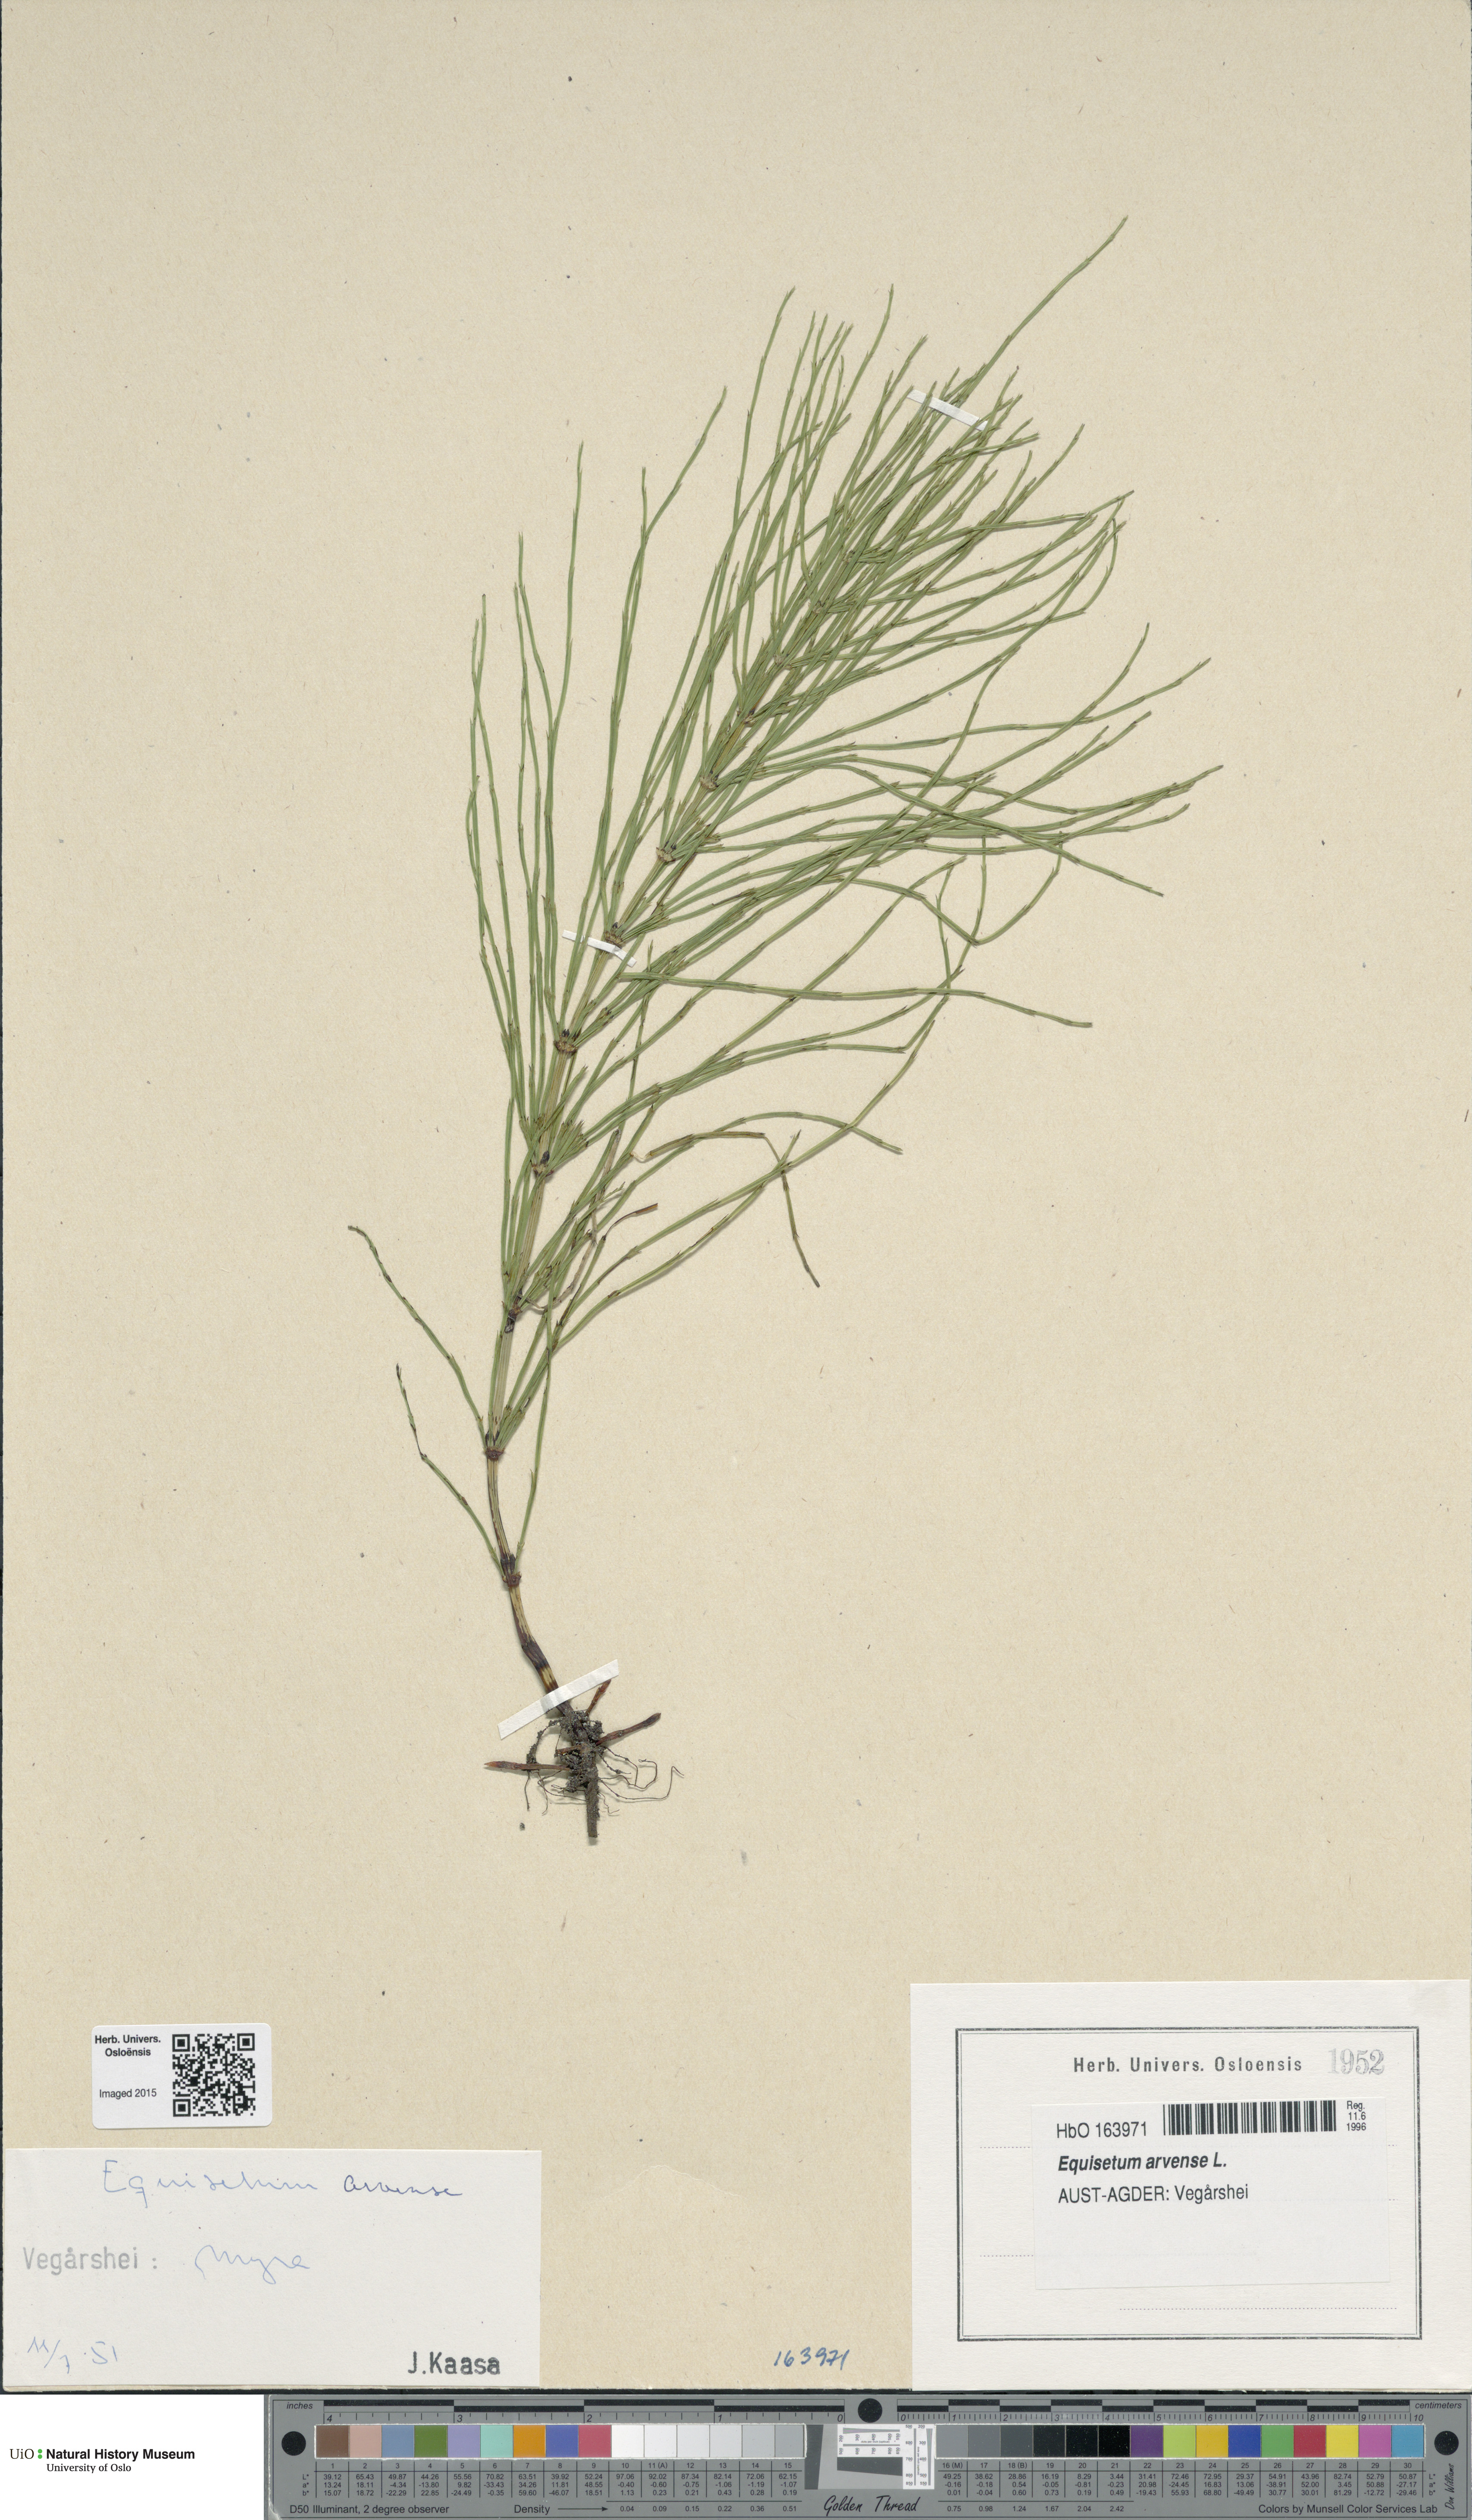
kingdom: Plantae
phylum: Tracheophyta
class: Polypodiopsida
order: Equisetales
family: Equisetaceae
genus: Equisetum
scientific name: Equisetum arvense
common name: Field horsetail
